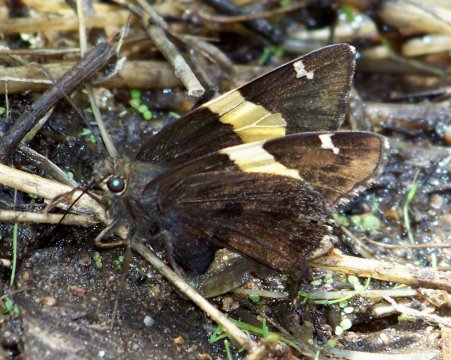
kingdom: Animalia
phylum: Arthropoda
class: Insecta
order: Lepidoptera
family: Hesperiidae
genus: Autochton
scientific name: Autochton cellus
